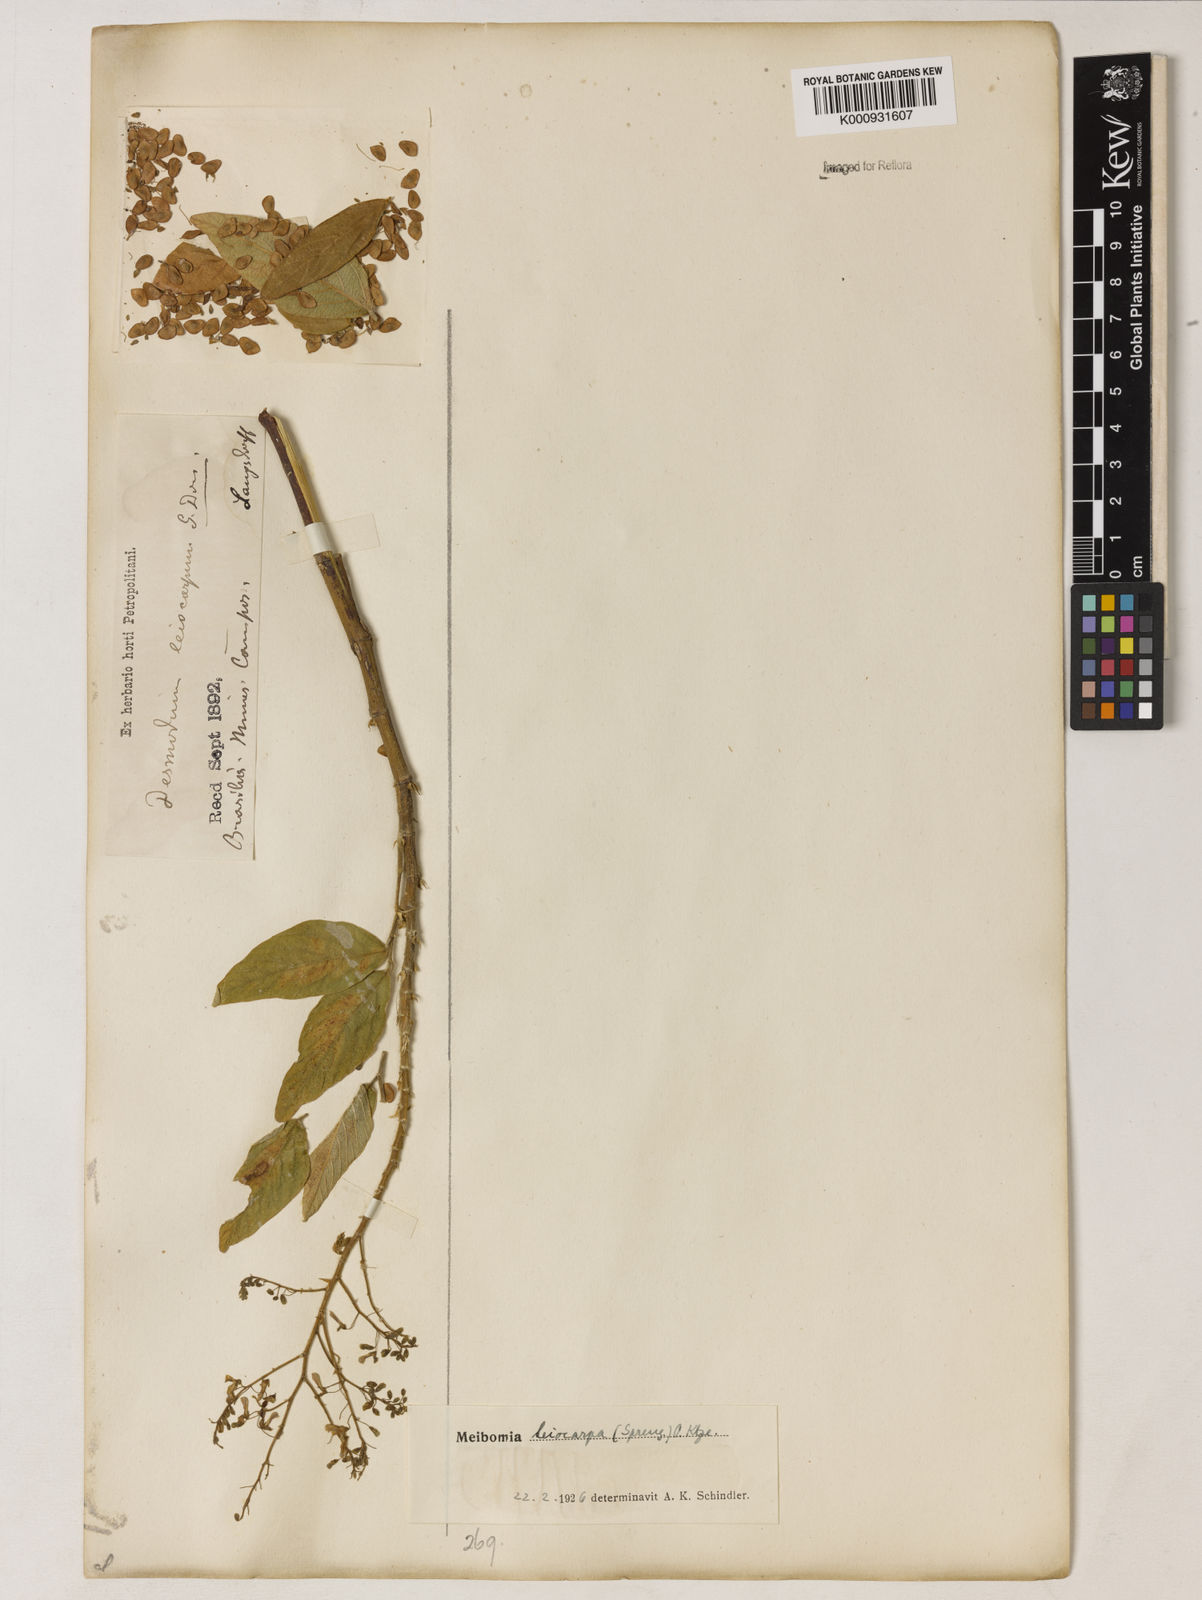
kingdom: Plantae
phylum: Tracheophyta
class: Magnoliopsida
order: Fabales
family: Fabaceae
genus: Desmodium
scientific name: Desmodium leiocarpum
